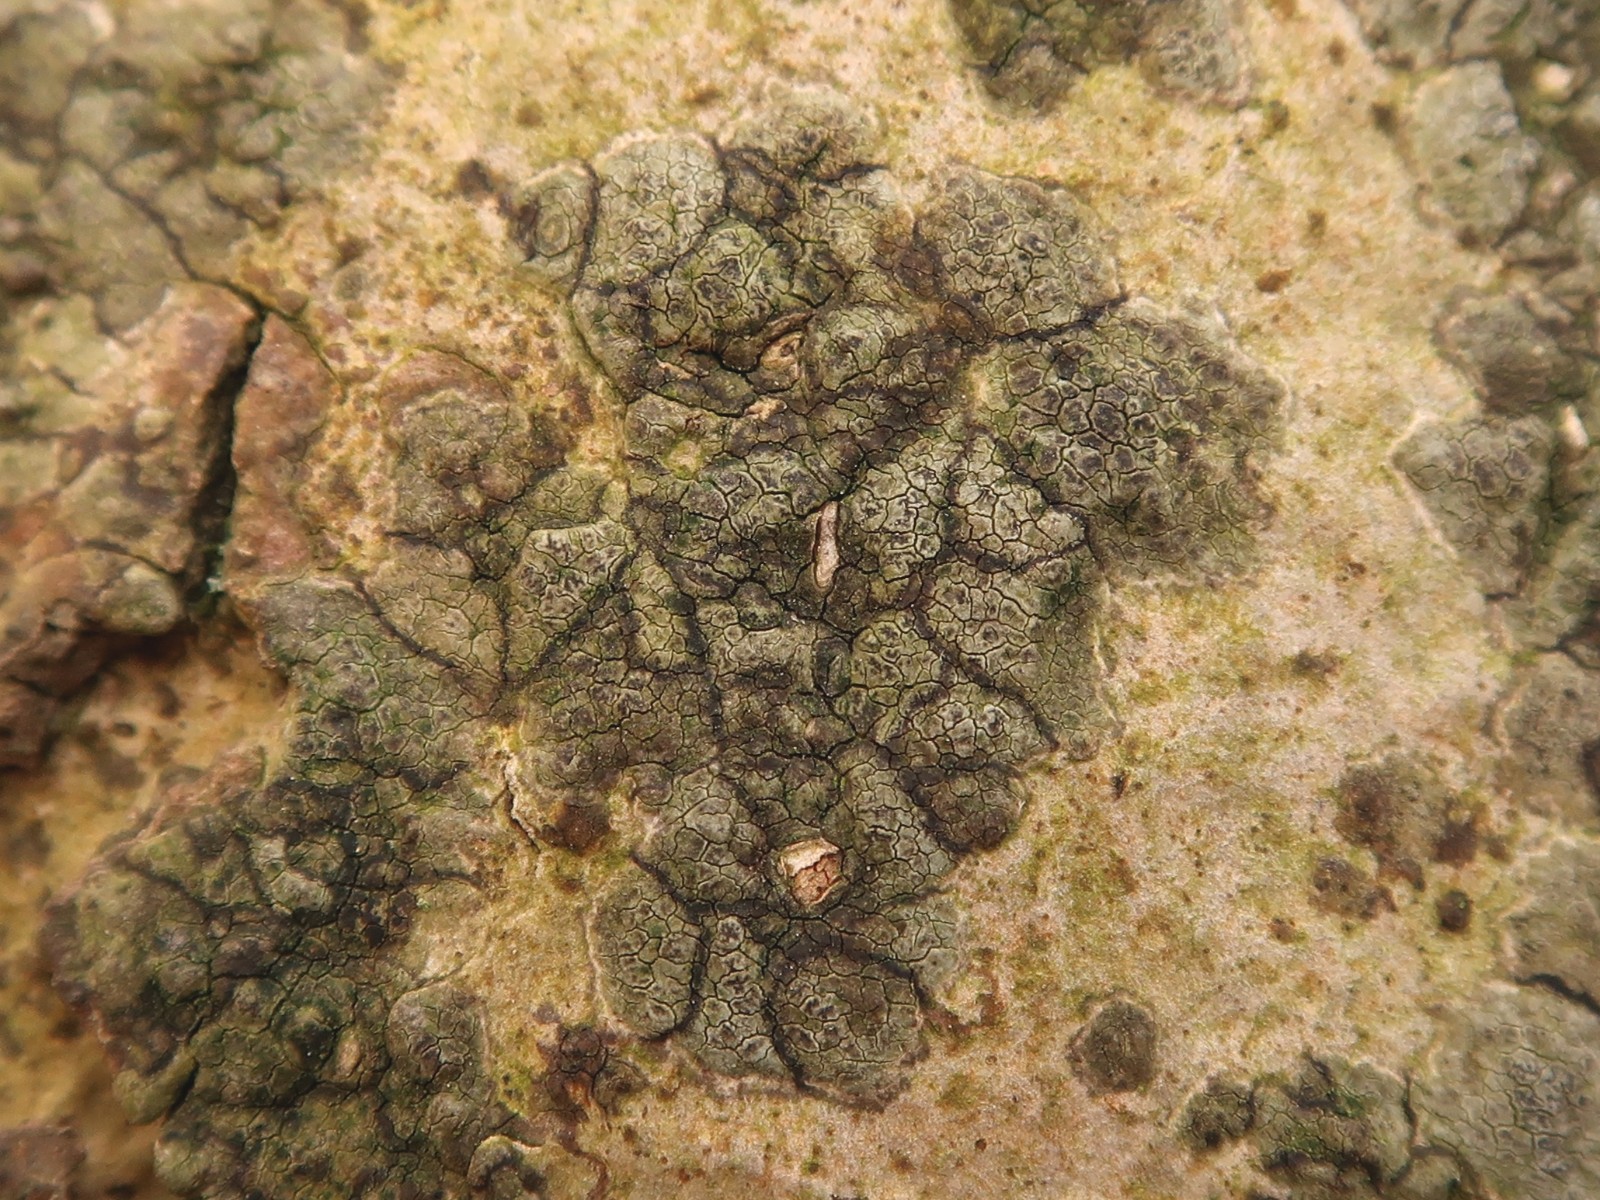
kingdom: Fungi
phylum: Ascomycota
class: Arthoniomycetes
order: Arthoniales
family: Roccellaceae
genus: Enterographa
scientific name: Enterographa crassa
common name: tyk prægelav
